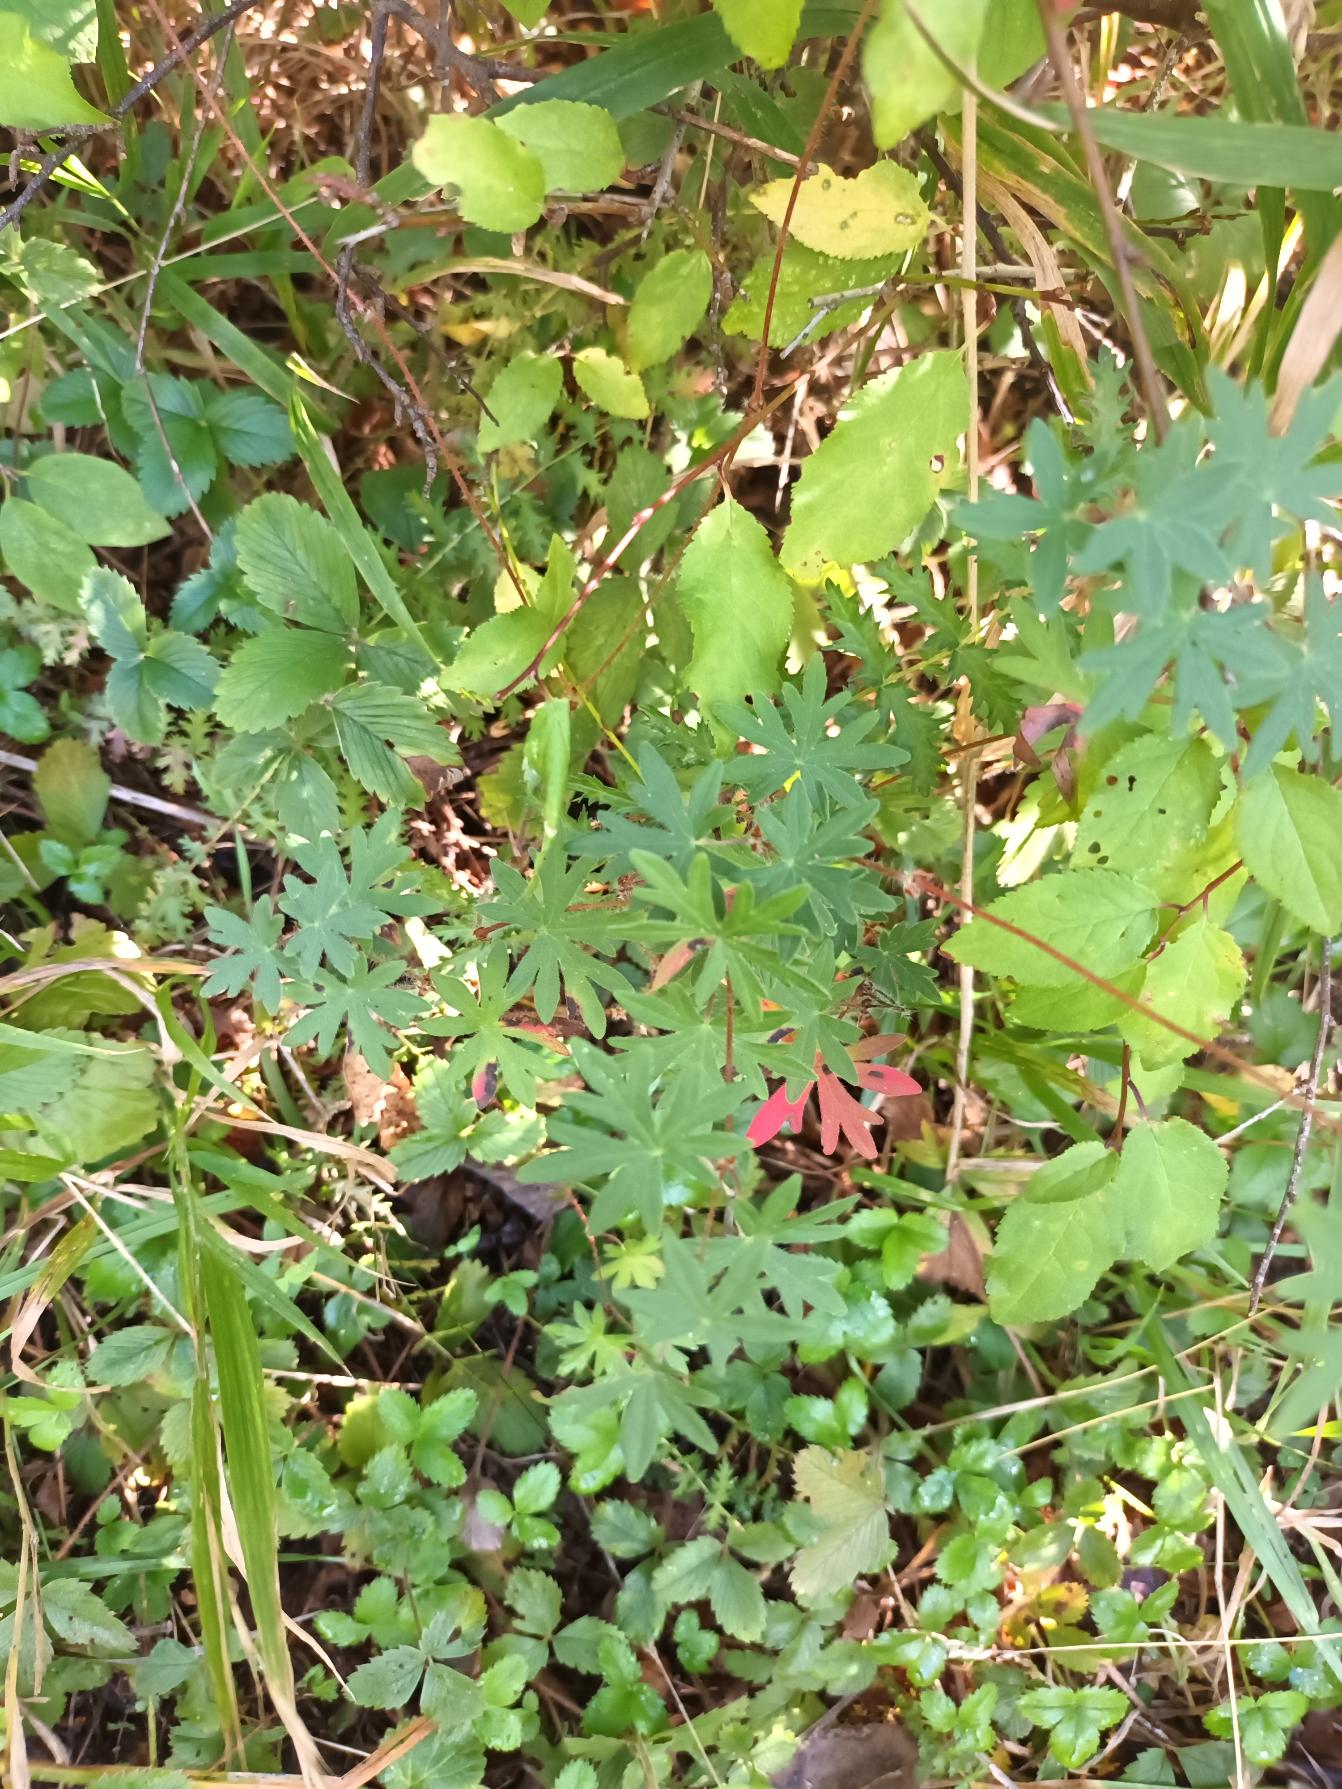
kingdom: Plantae
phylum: Tracheophyta
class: Magnoliopsida
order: Geraniales
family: Geraniaceae
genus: Geranium
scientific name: Geranium sanguineum
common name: Blodrød storkenæb
